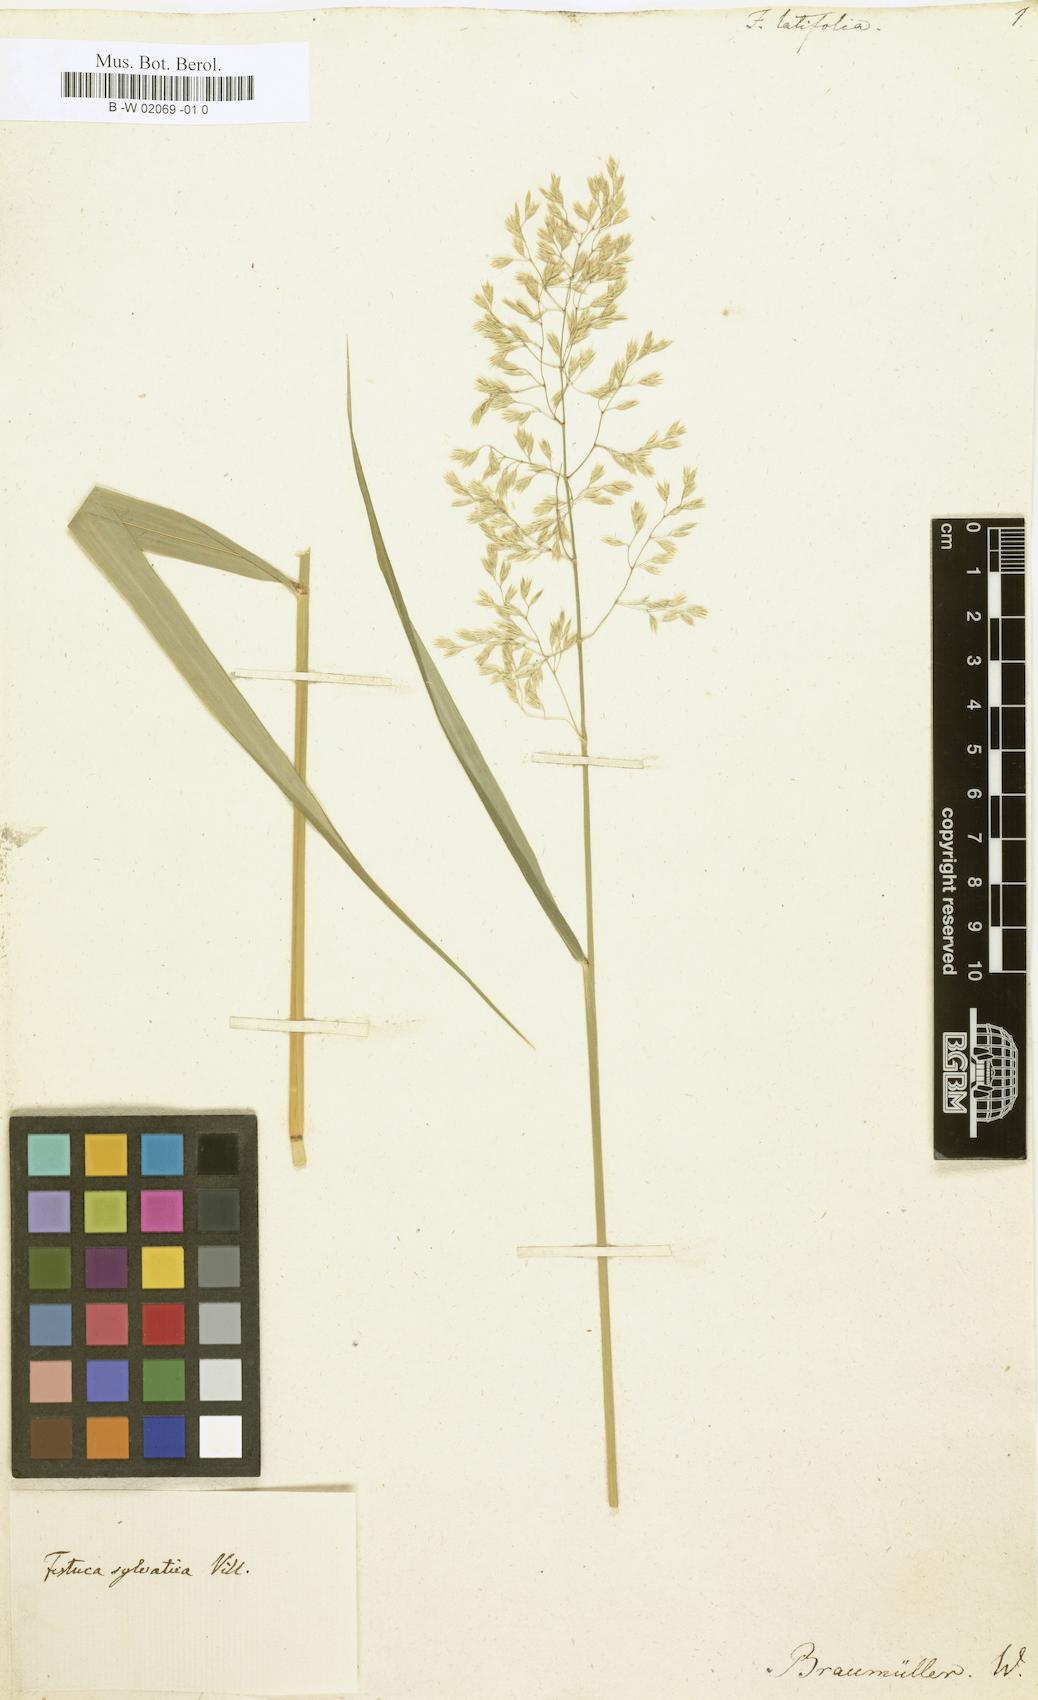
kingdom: Plantae
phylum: Tracheophyta
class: Liliopsida
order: Poales
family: Poaceae
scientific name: Poaceae
